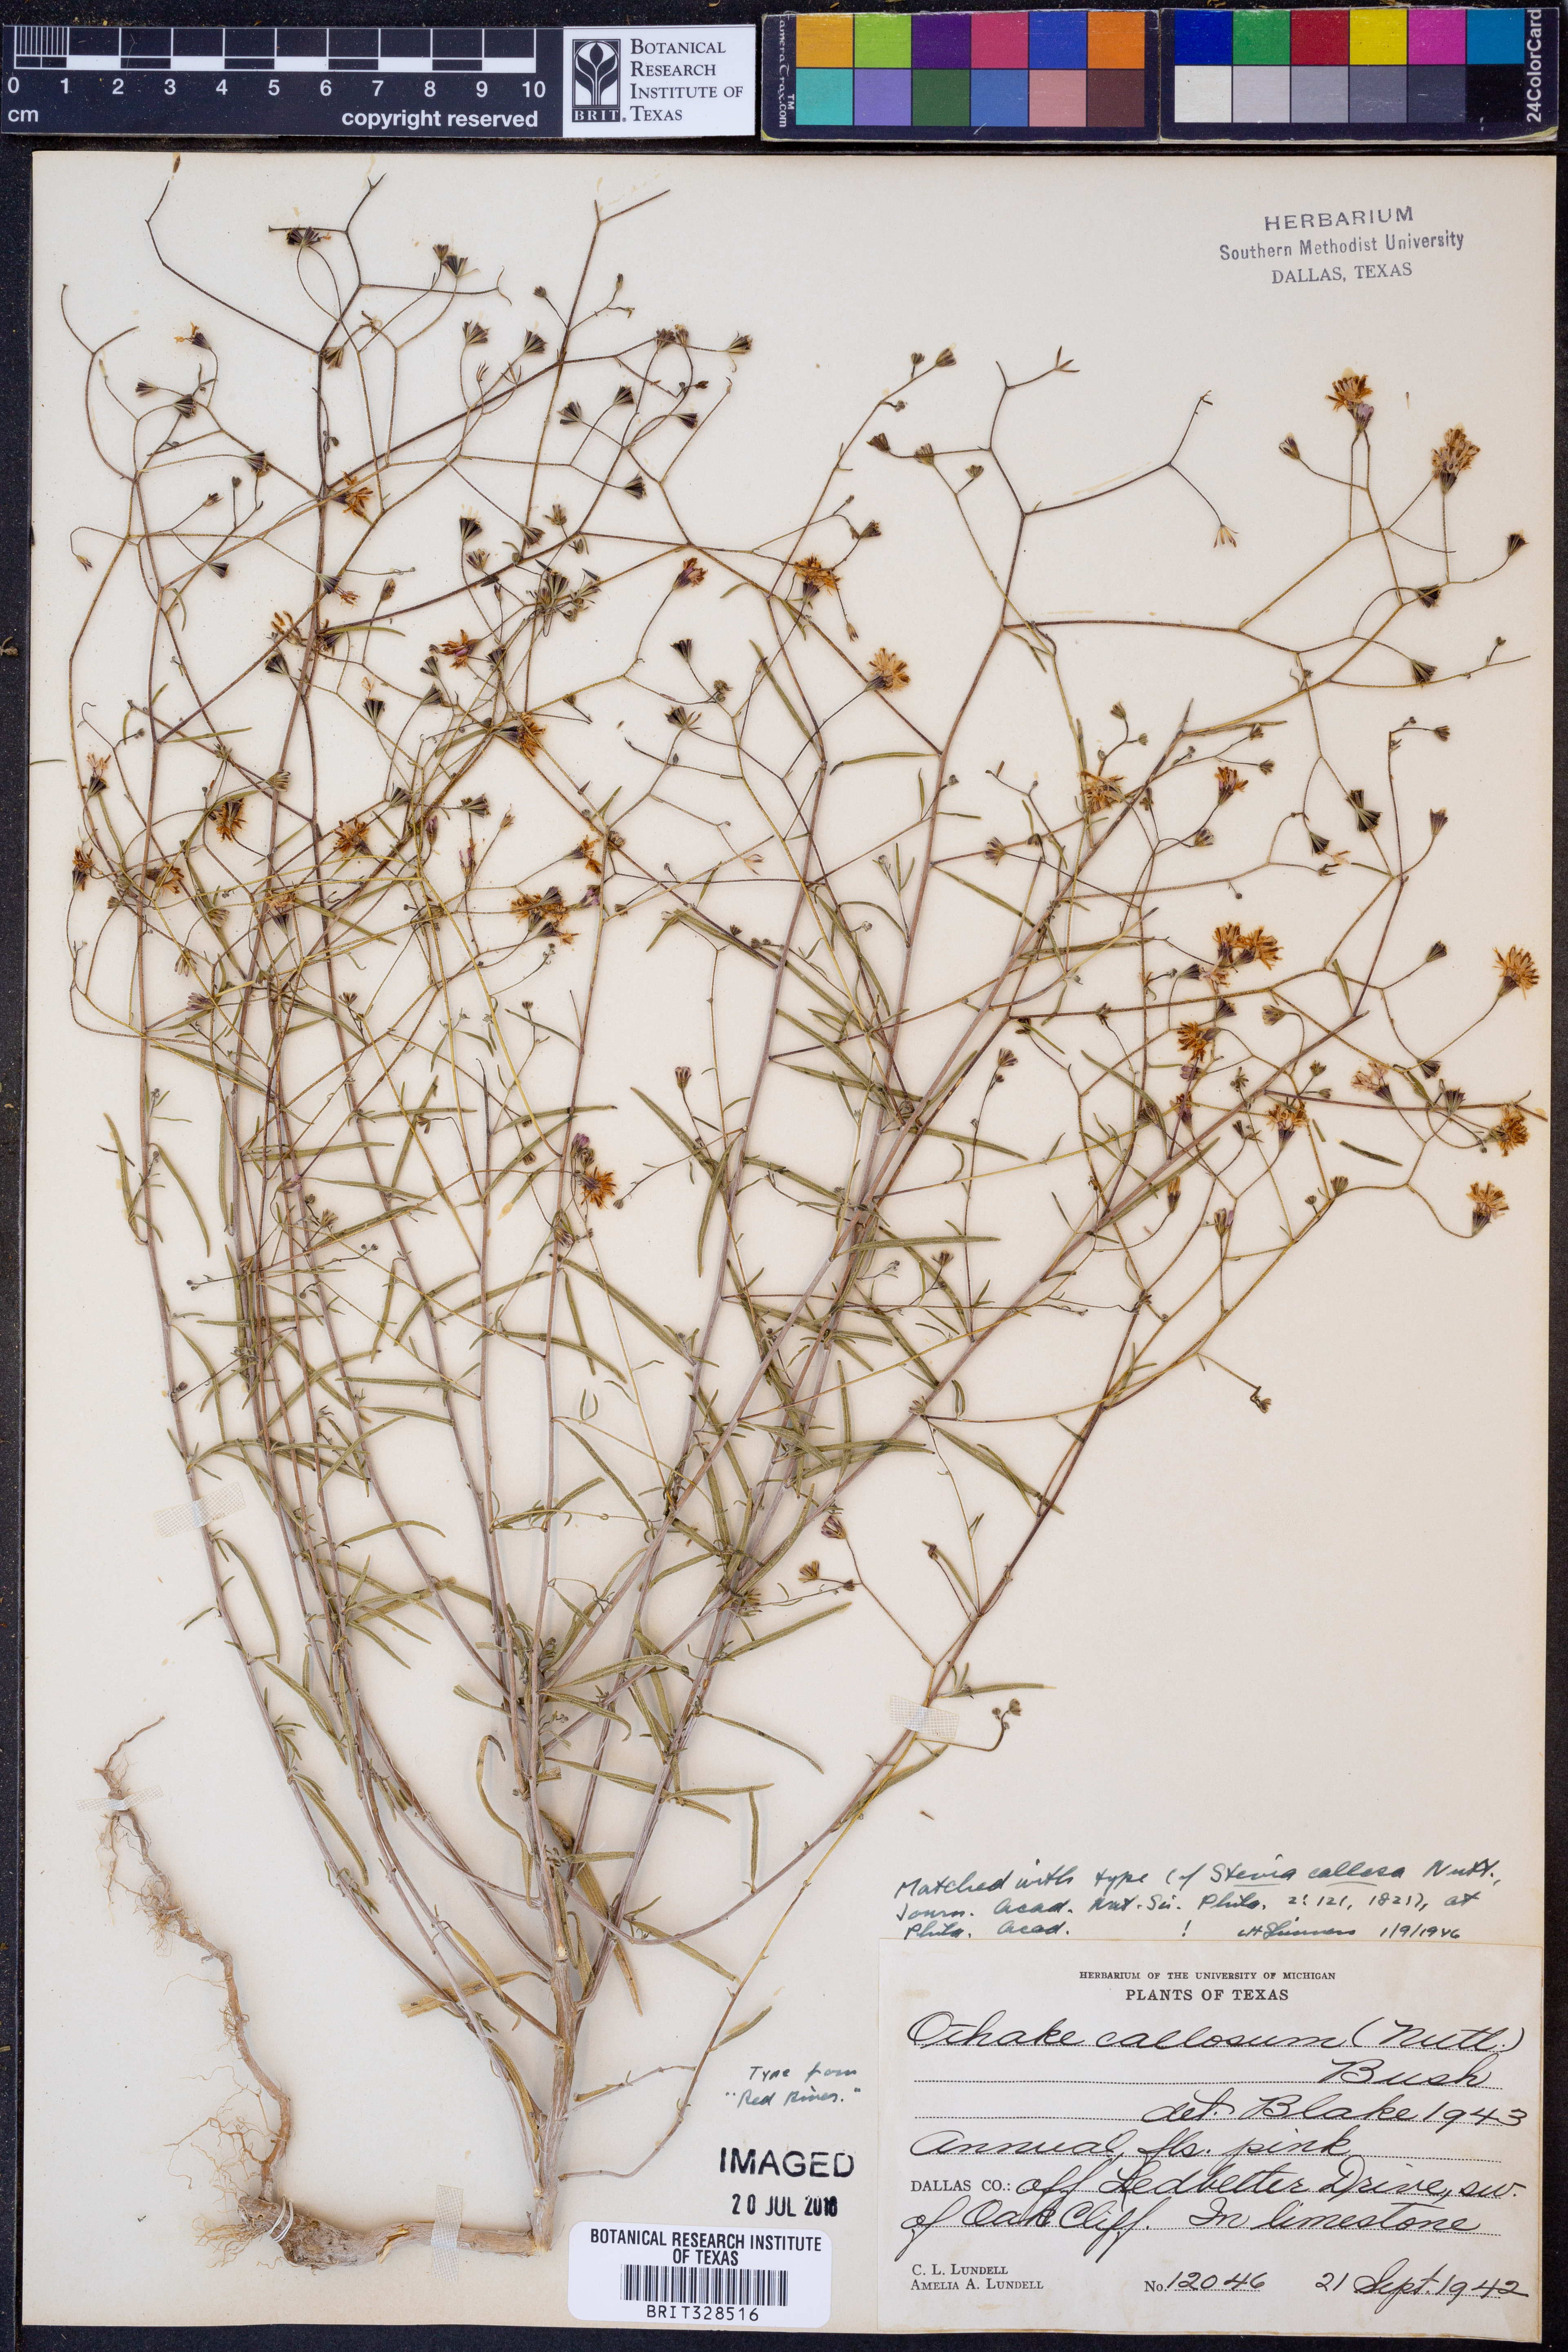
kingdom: Plantae
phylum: Tracheophyta
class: Magnoliopsida
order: Asterales
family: Asteraceae
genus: Palafoxia
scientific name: Palafoxia callosa
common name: Small palafox
